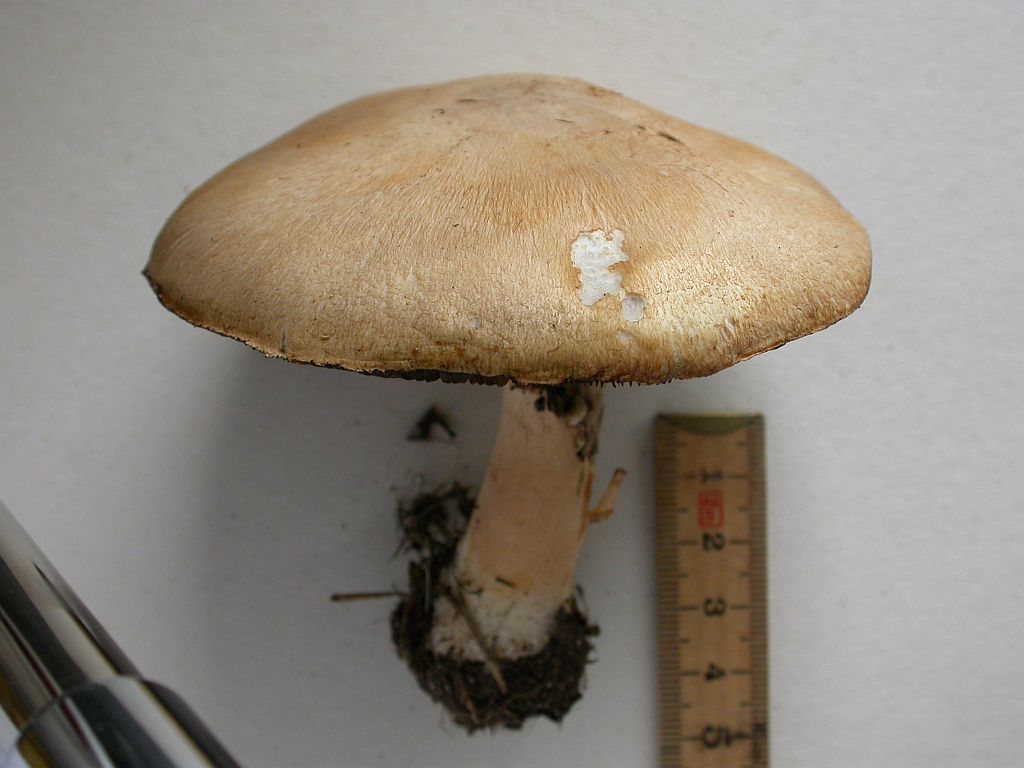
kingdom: Fungi
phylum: Basidiomycota
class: Agaricomycetes
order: Agaricales
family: Agaricaceae
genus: Agaricus
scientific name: Agaricus arvensis
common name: ager-champignon
